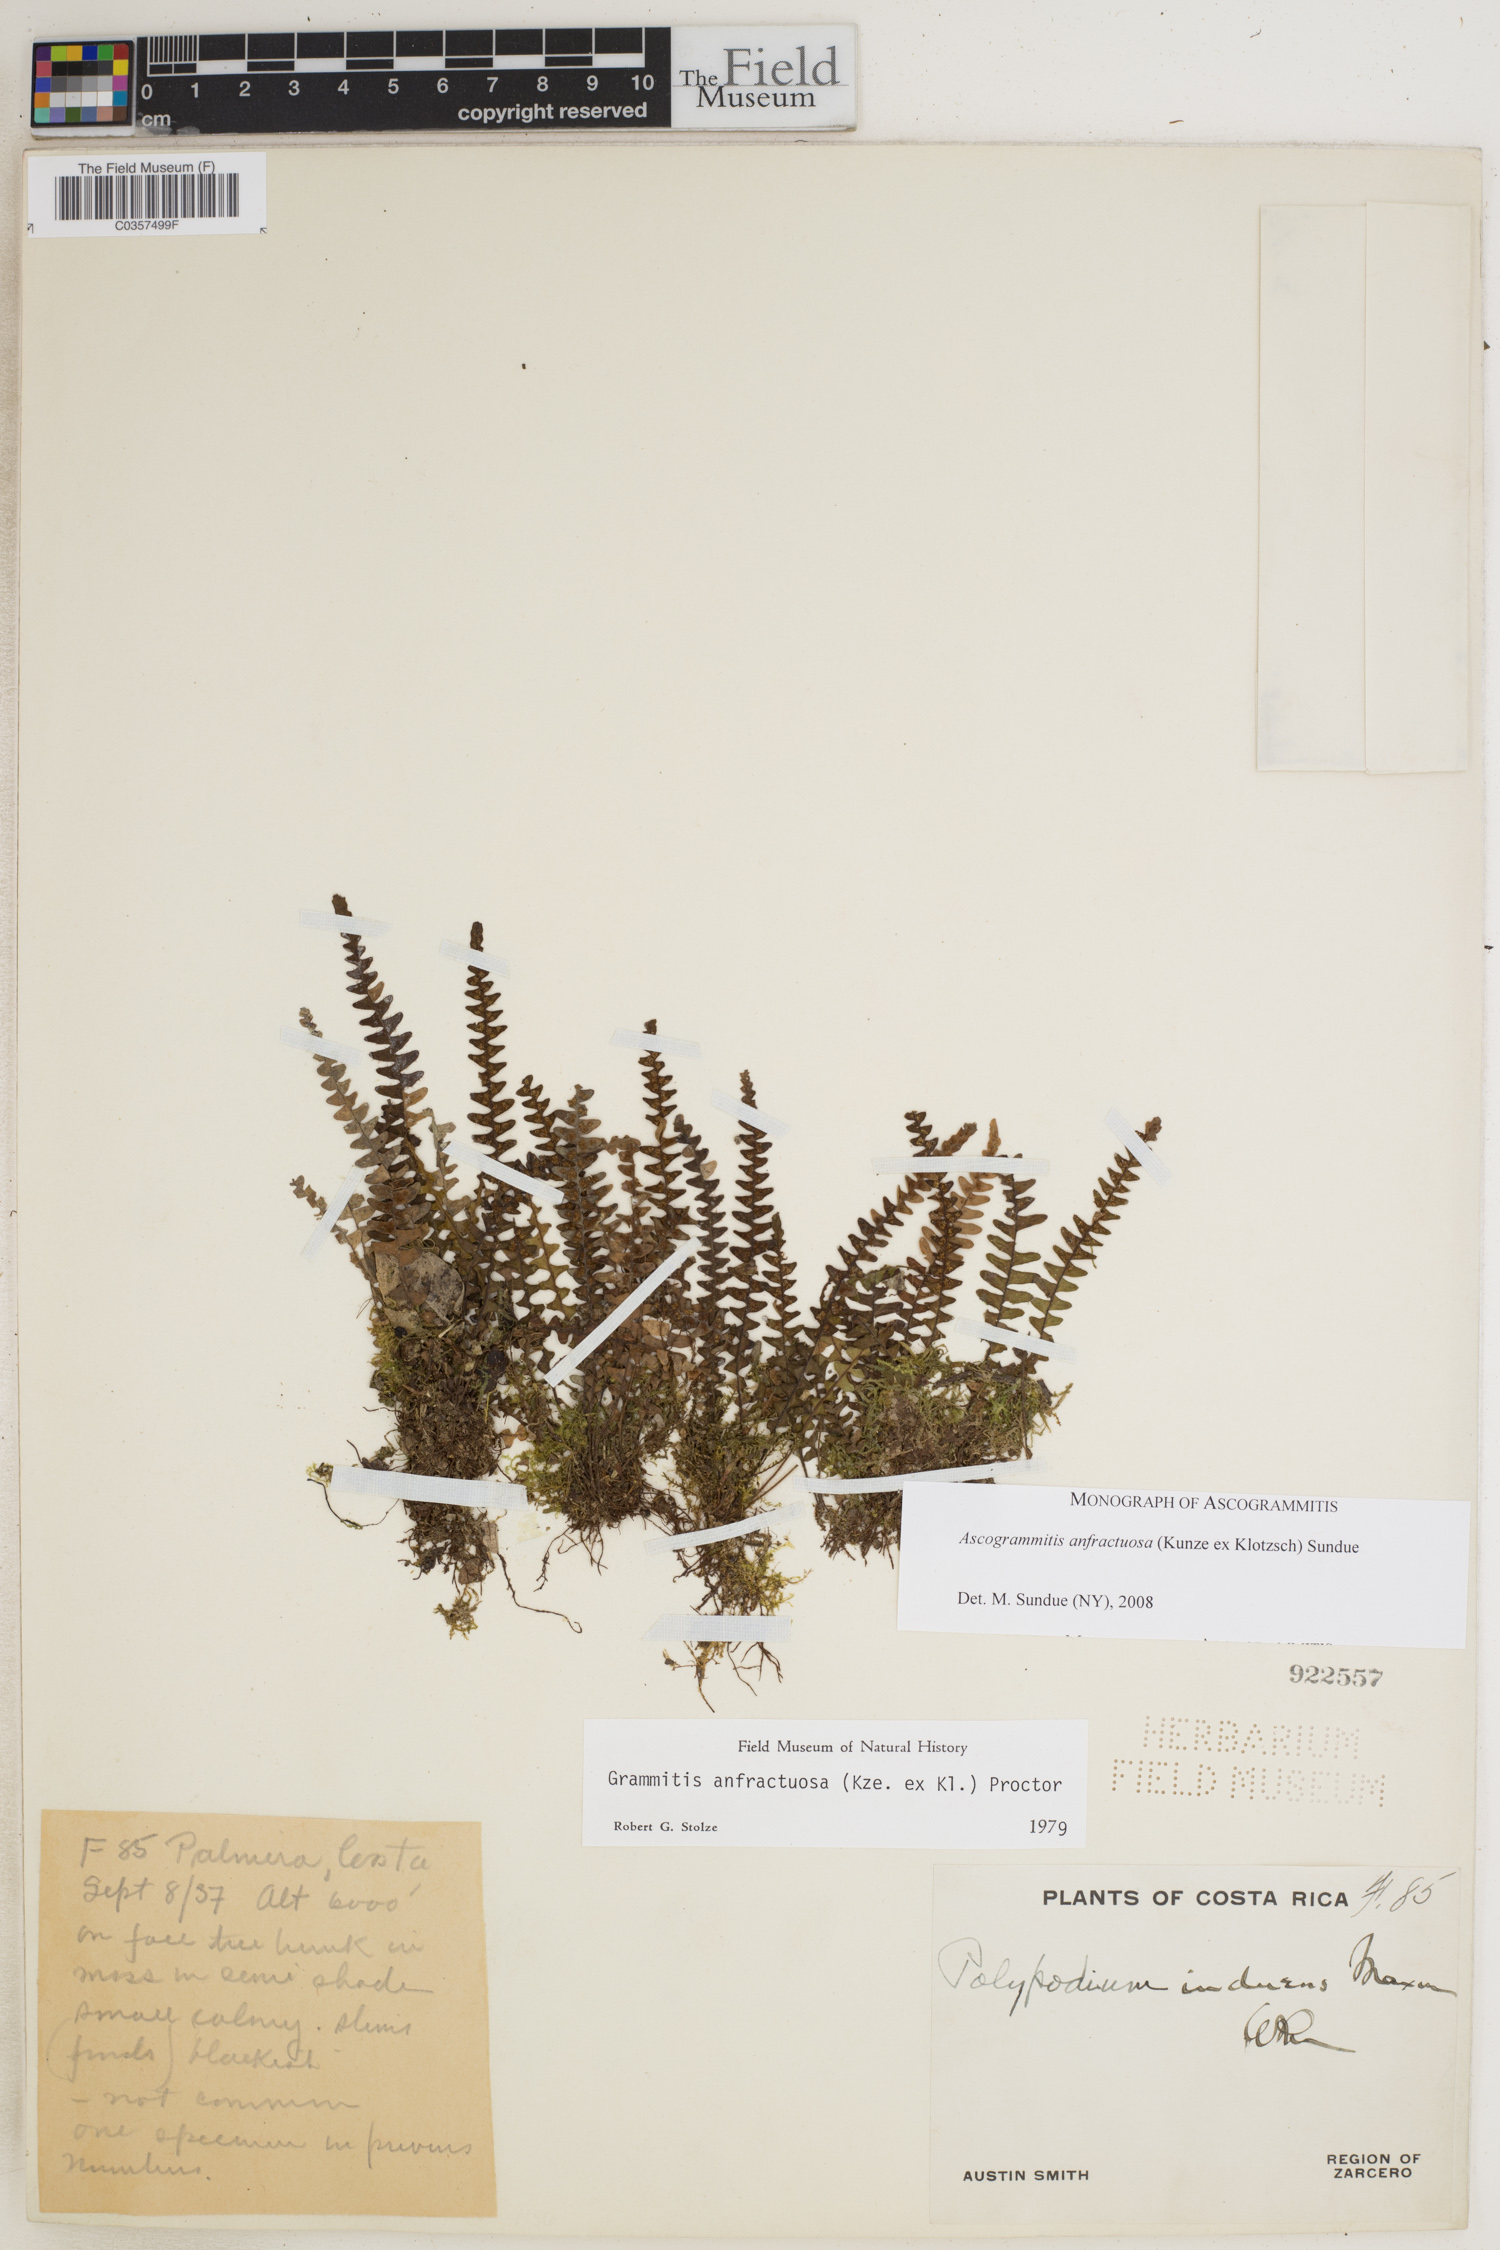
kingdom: Plantae
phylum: Tracheophyta
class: Polypodiopsida
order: Polypodiales
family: Polypodiaceae
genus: Ascogrammitis
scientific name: Ascogrammitis anfractuosa
